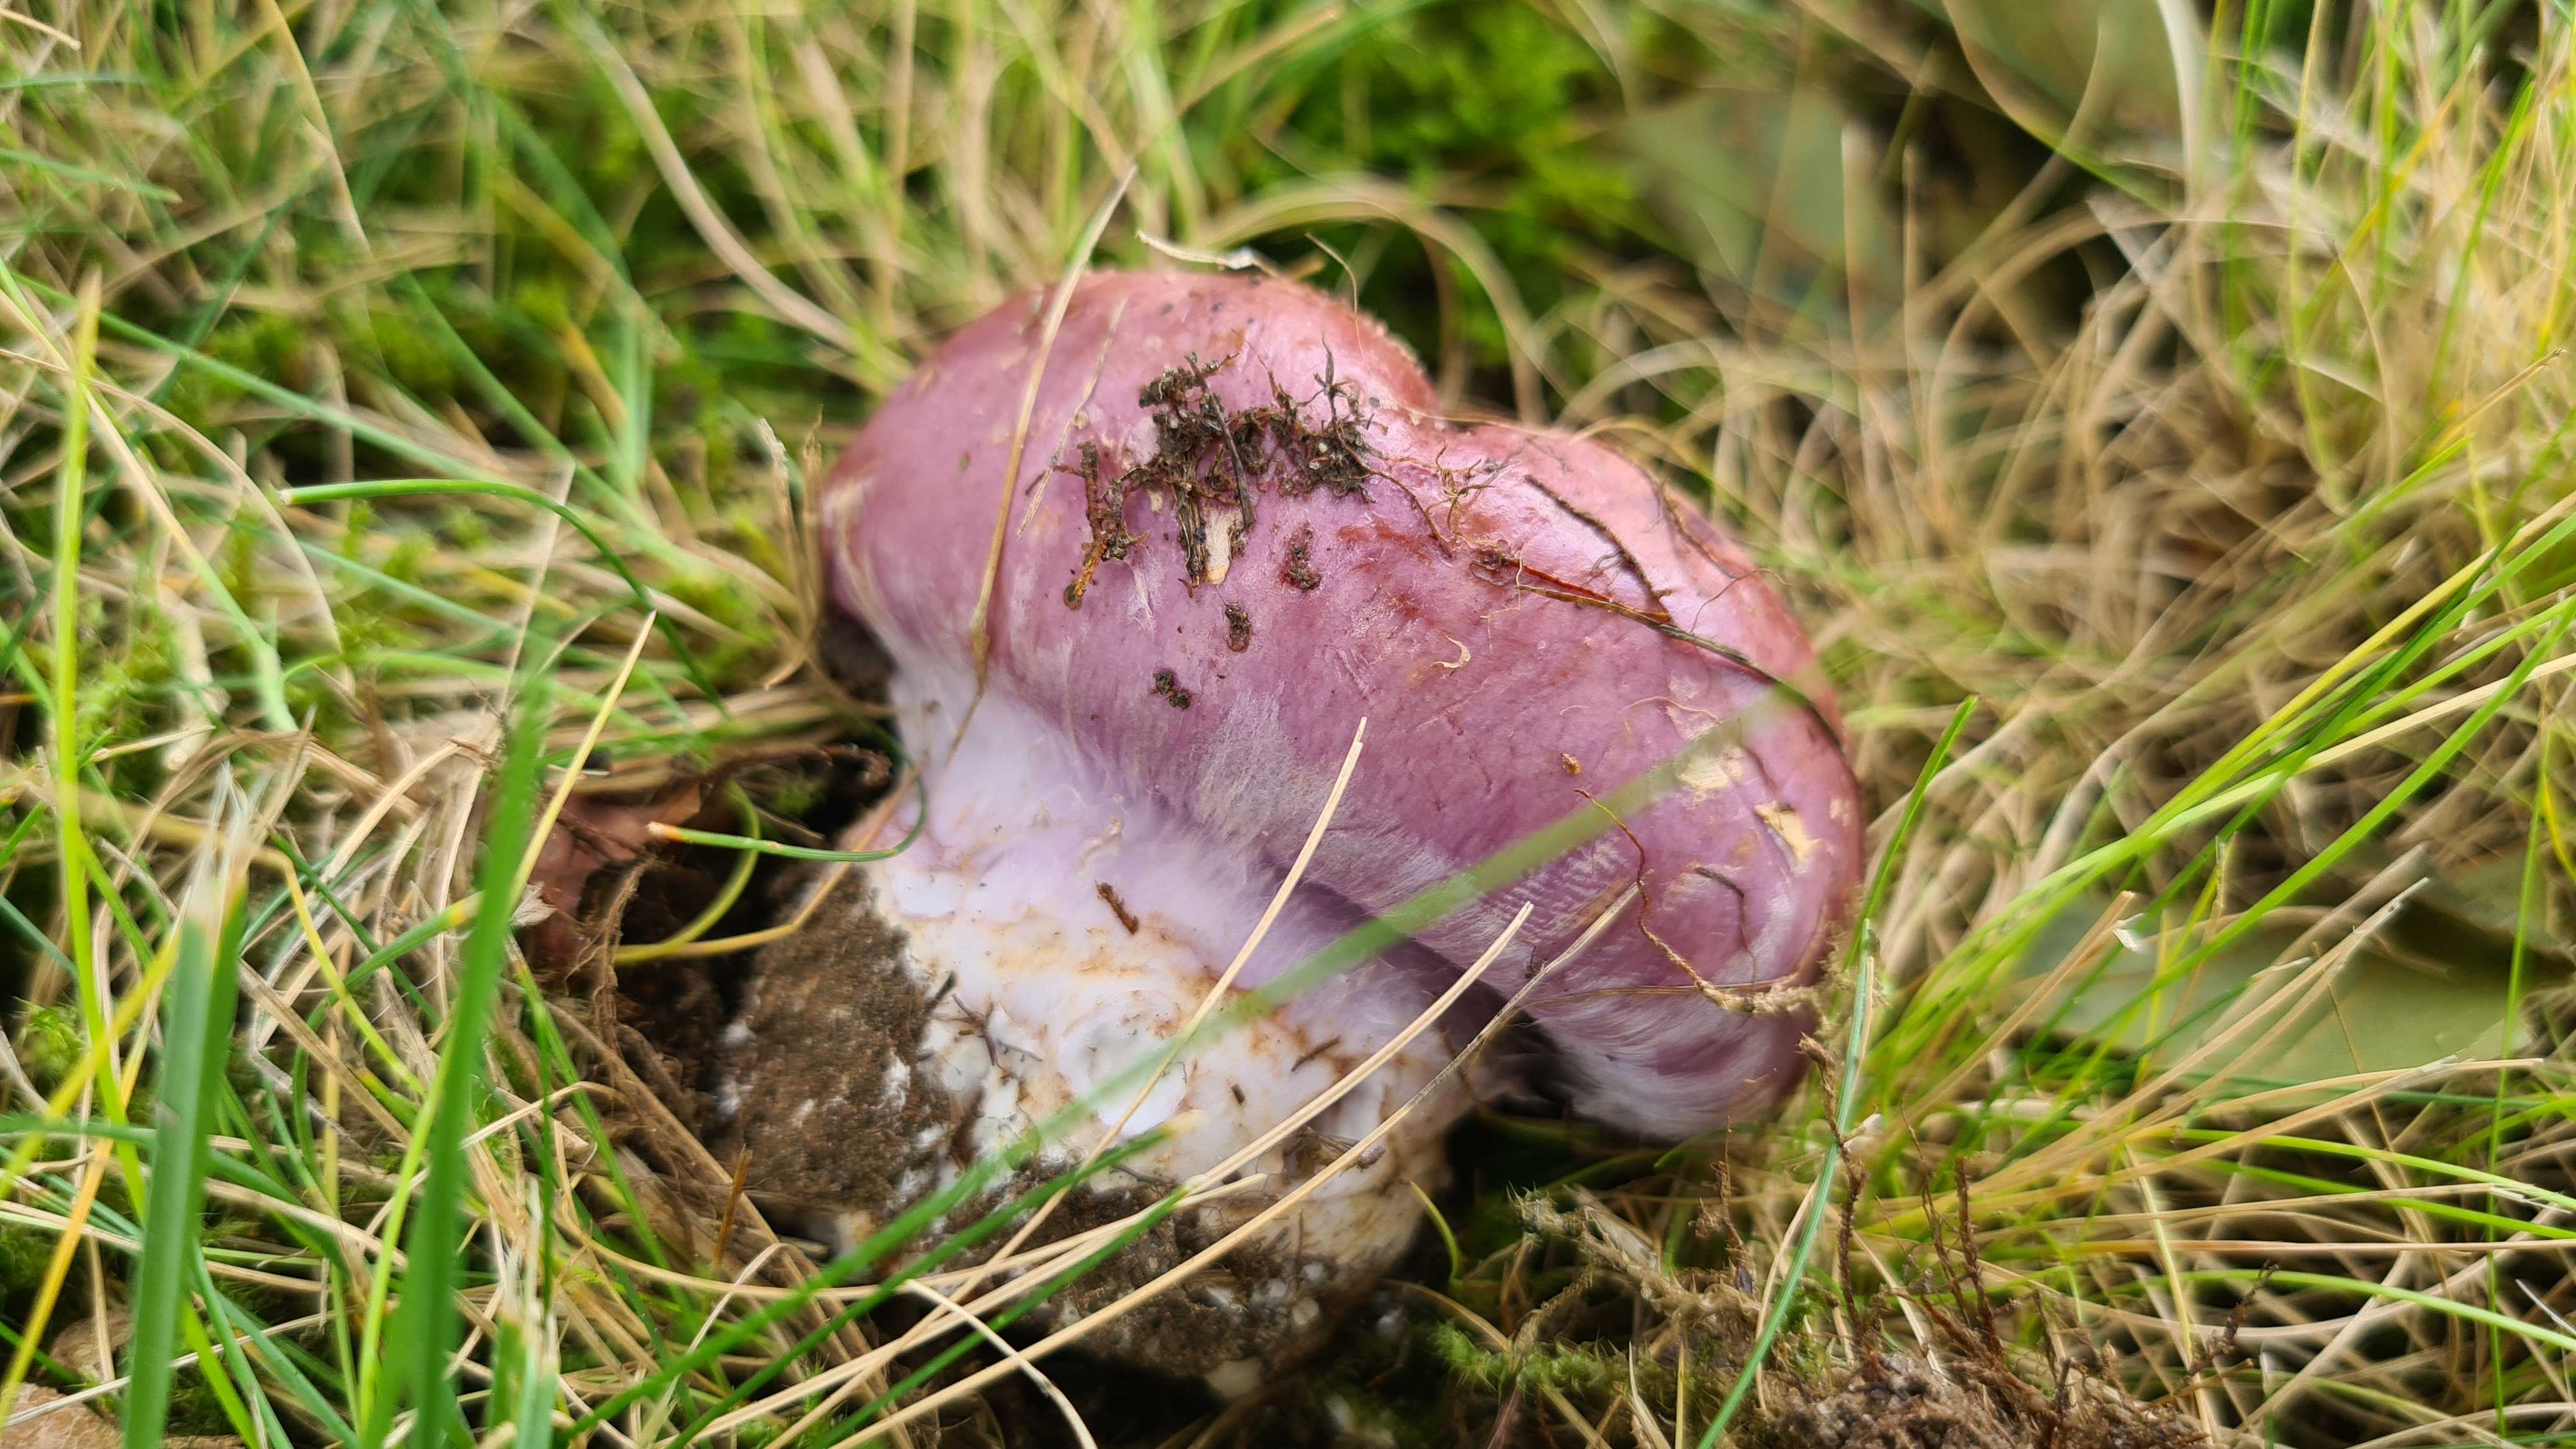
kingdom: Fungi
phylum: Basidiomycota
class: Agaricomycetes
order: Agaricales
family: Cortinariaceae
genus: Phlegmacium
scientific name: Phlegmacium balteatocumatile
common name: violettrådet slørhat
